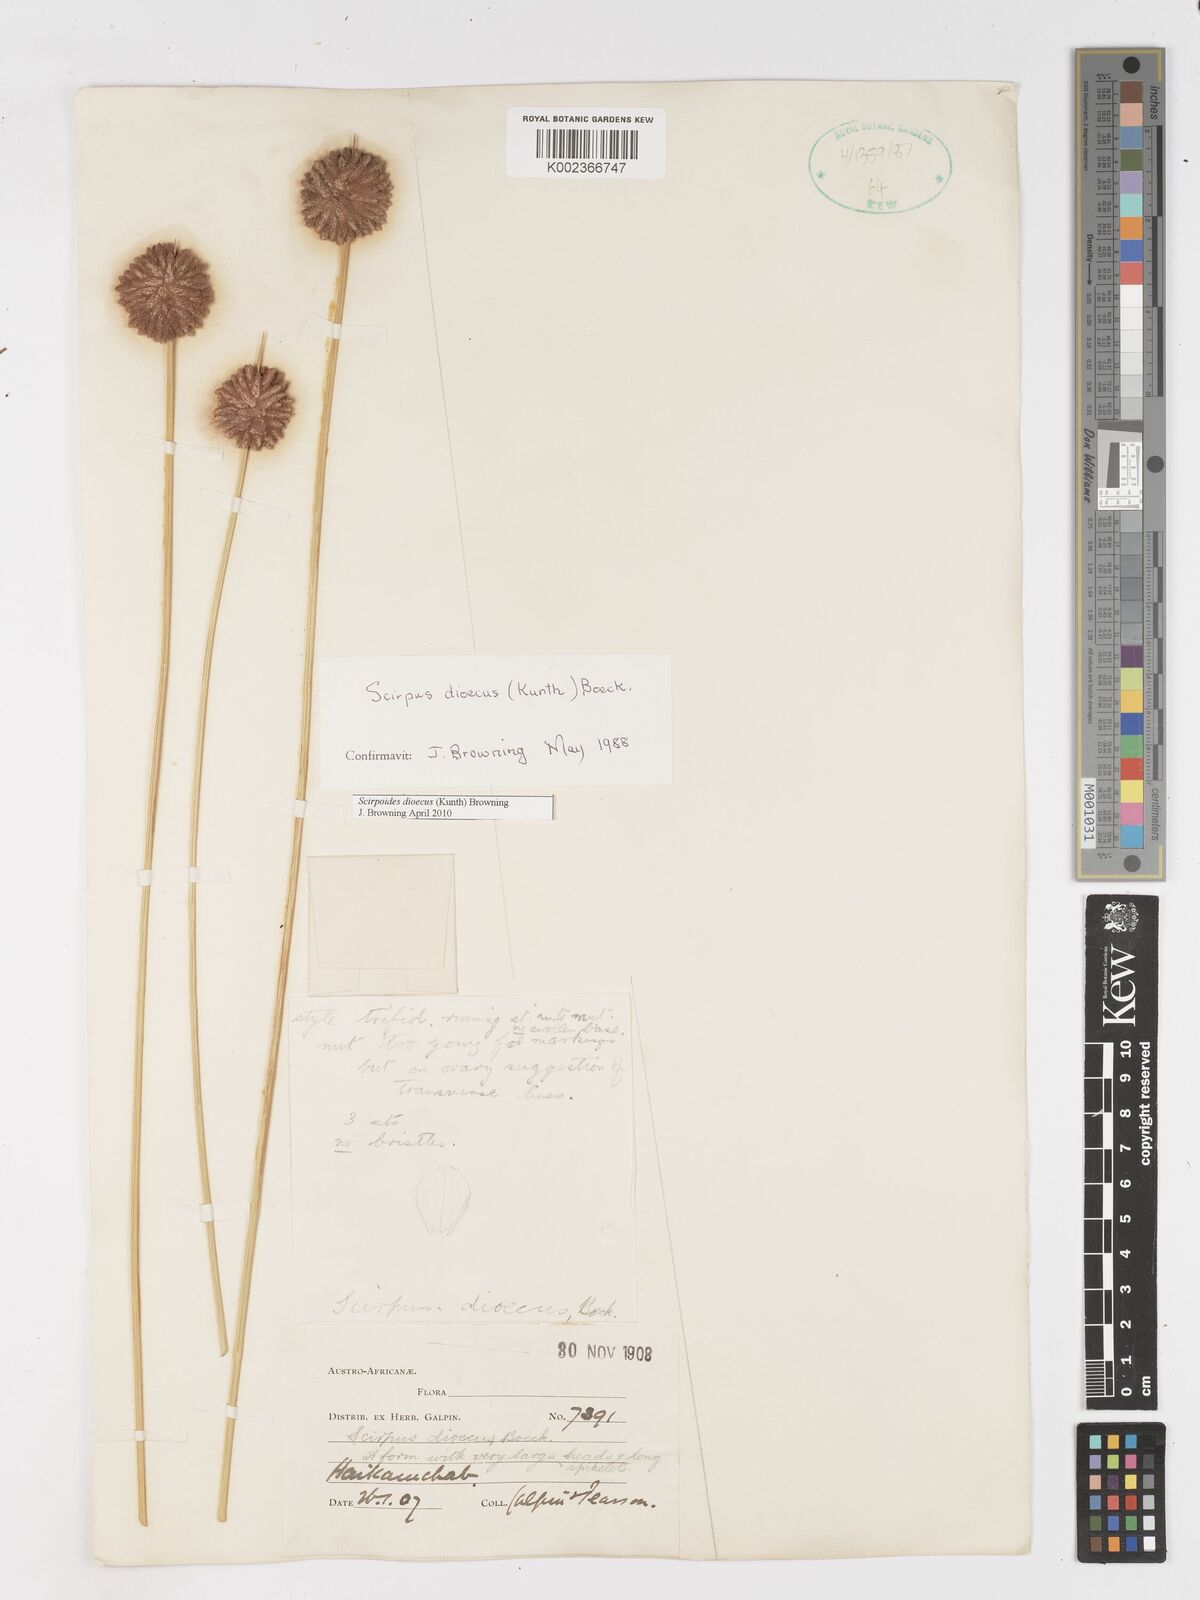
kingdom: Plantae
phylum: Tracheophyta
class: Liliopsida
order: Poales
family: Cyperaceae
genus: Afroscirpoides
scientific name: Afroscirpoides dioeca
